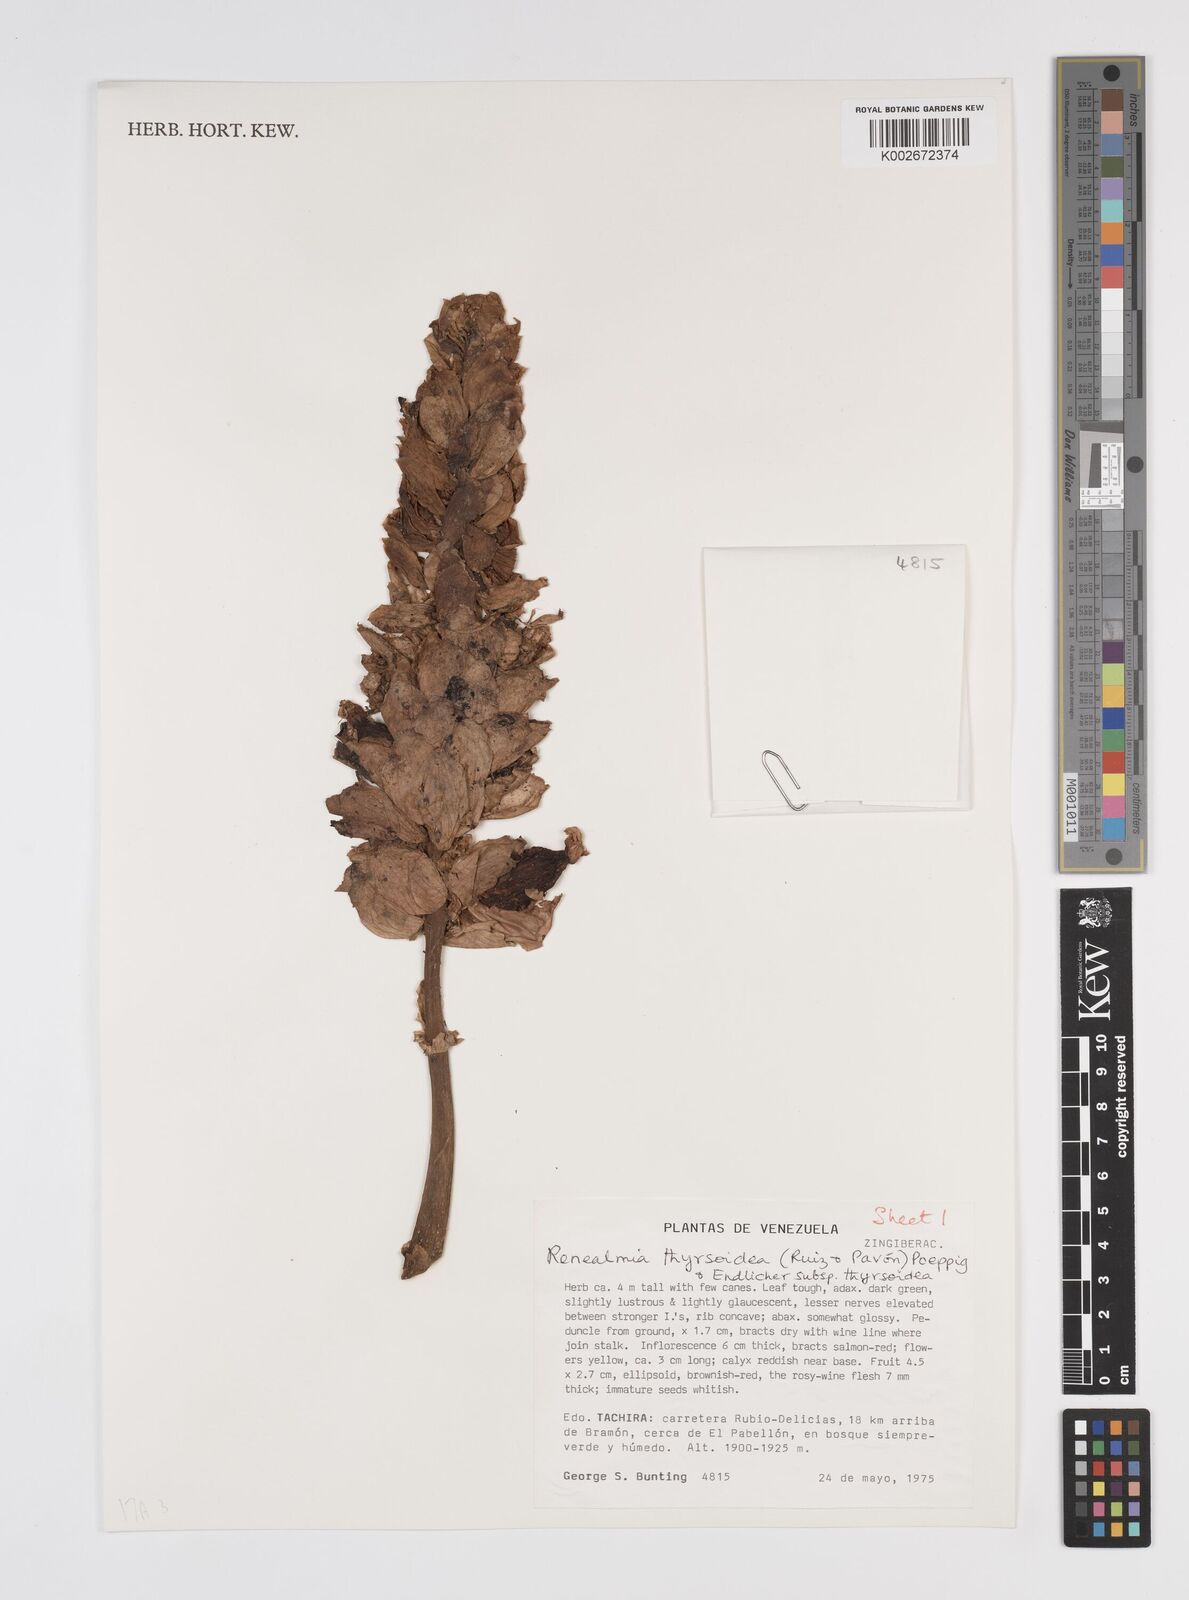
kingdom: Plantae
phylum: Tracheophyta
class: Liliopsida
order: Zingiberales
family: Zingiberaceae
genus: Renealmia
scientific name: Renealmia thyrsoidea
